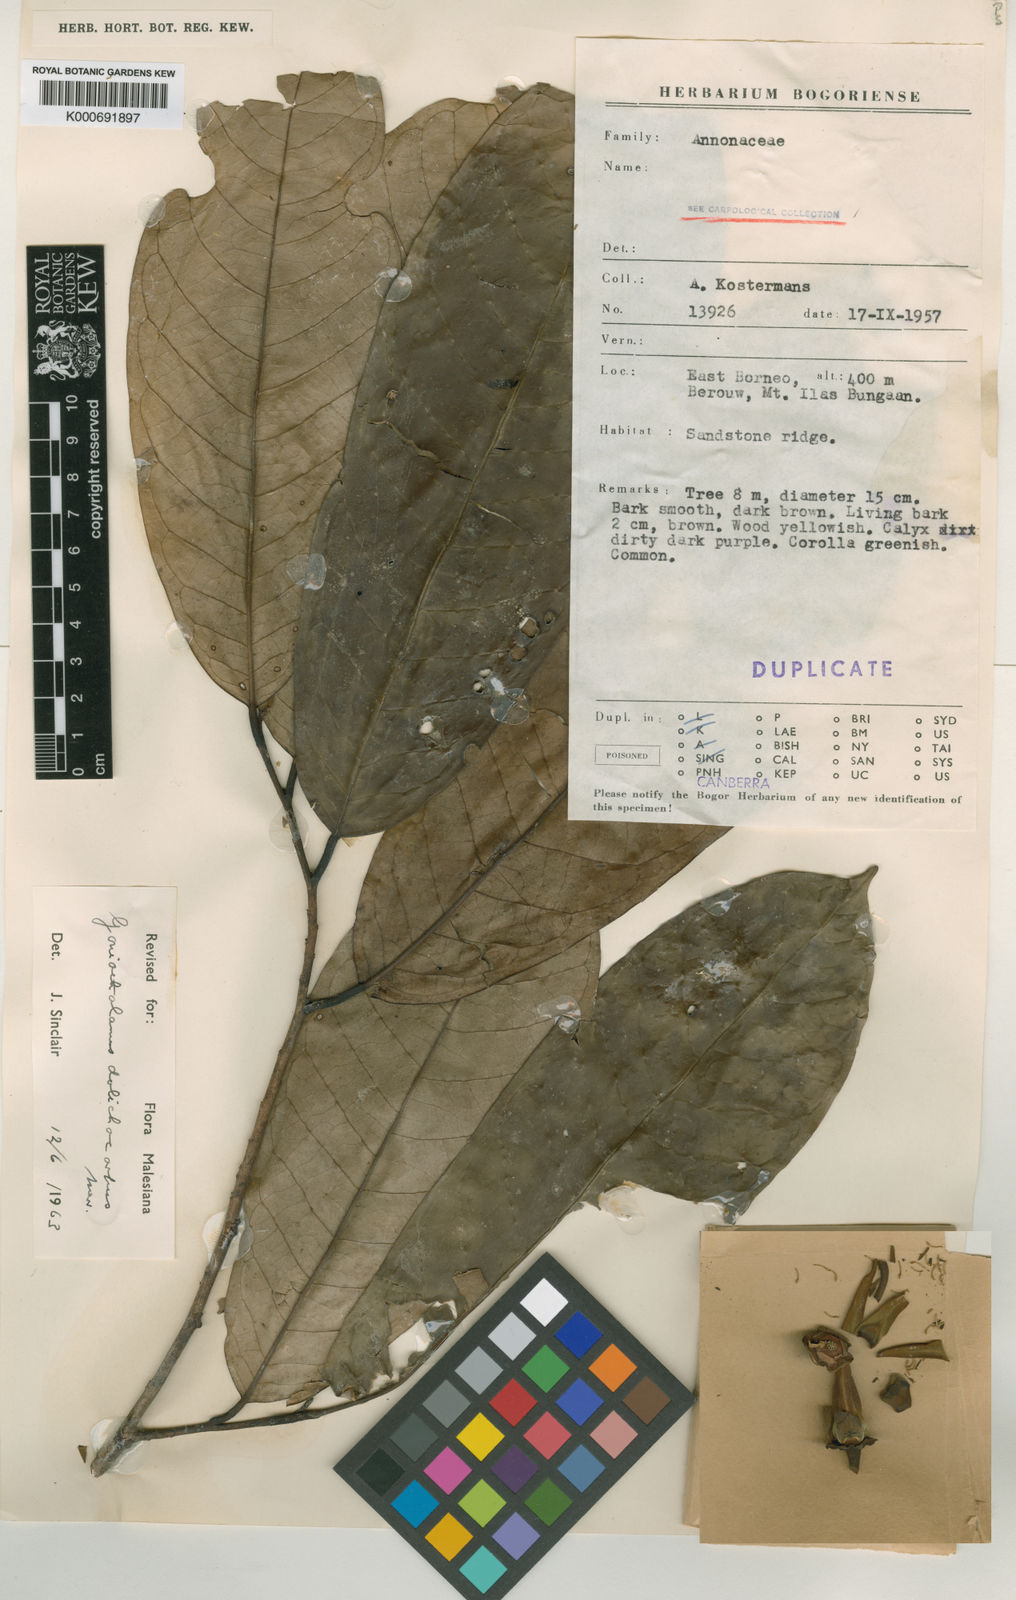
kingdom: Plantae
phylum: Tracheophyta
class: Magnoliopsida
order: Magnoliales
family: Annonaceae
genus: Goniothalamus
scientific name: Goniothalamus kostermansii
